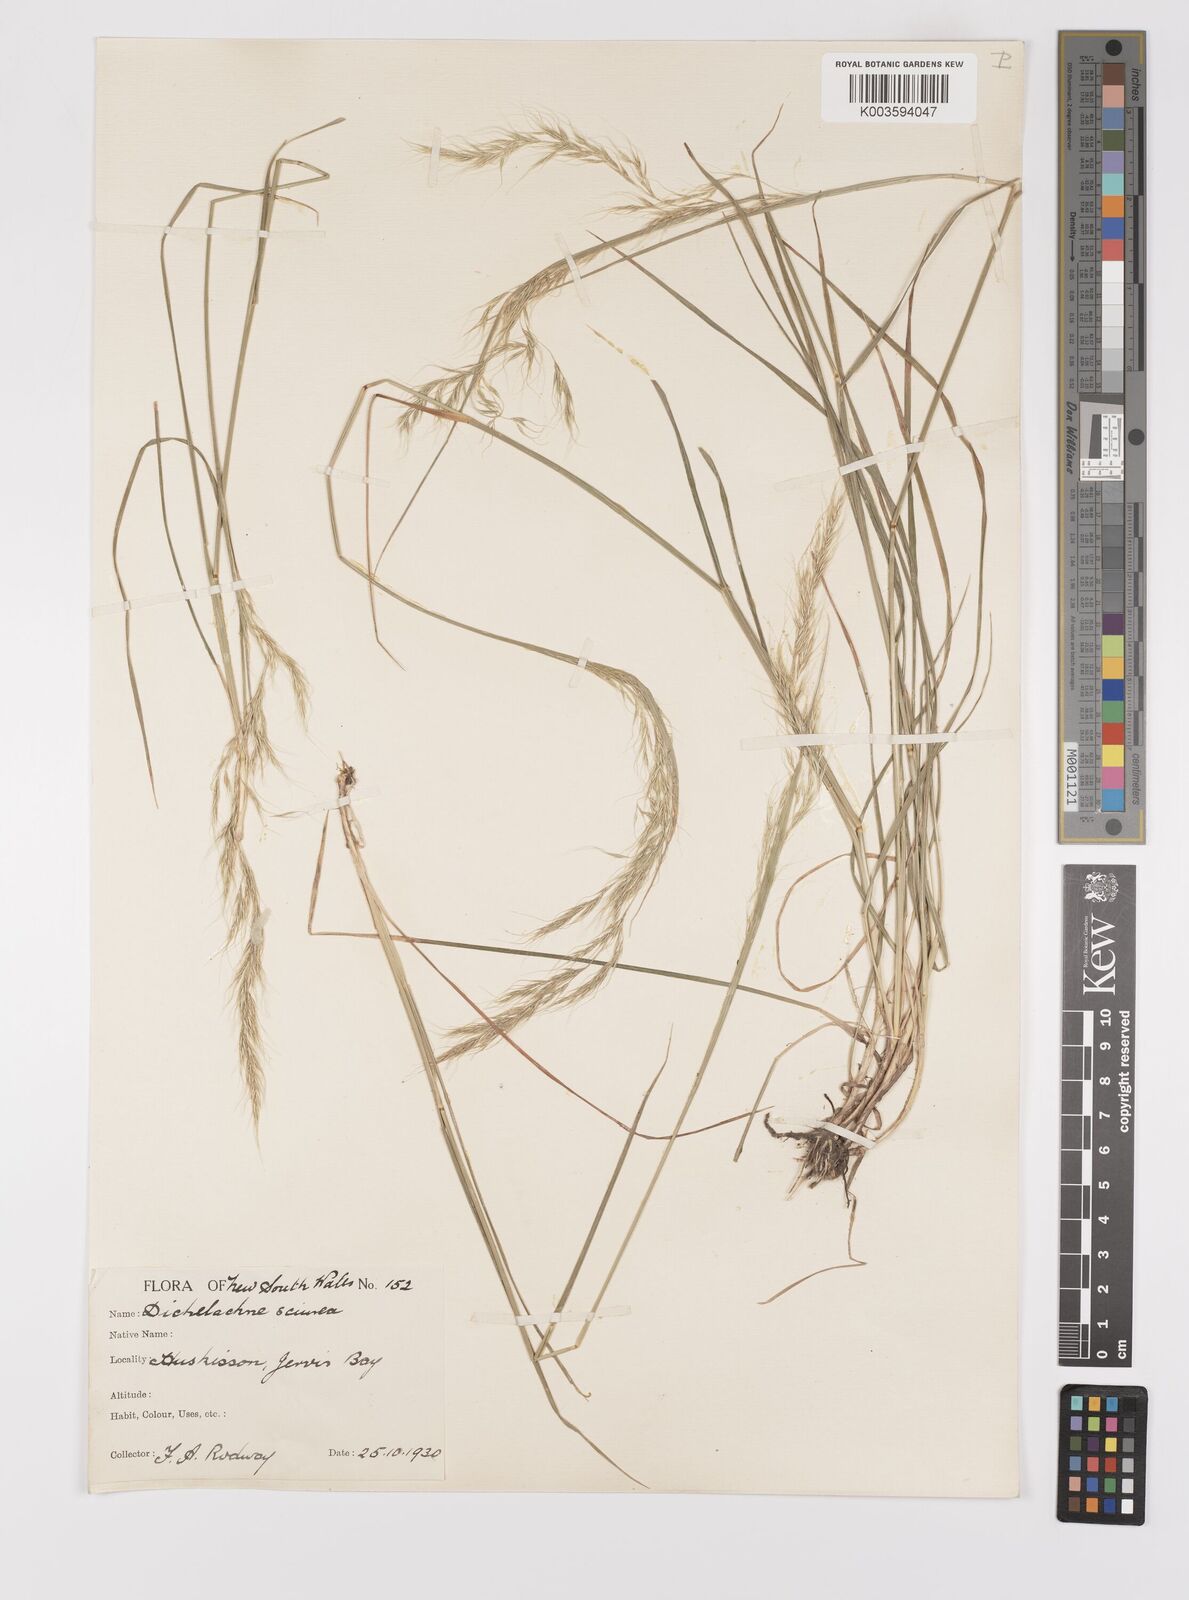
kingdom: Plantae
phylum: Tracheophyta
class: Liliopsida
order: Poales
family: Poaceae
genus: Dichelachne
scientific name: Dichelachne rara
